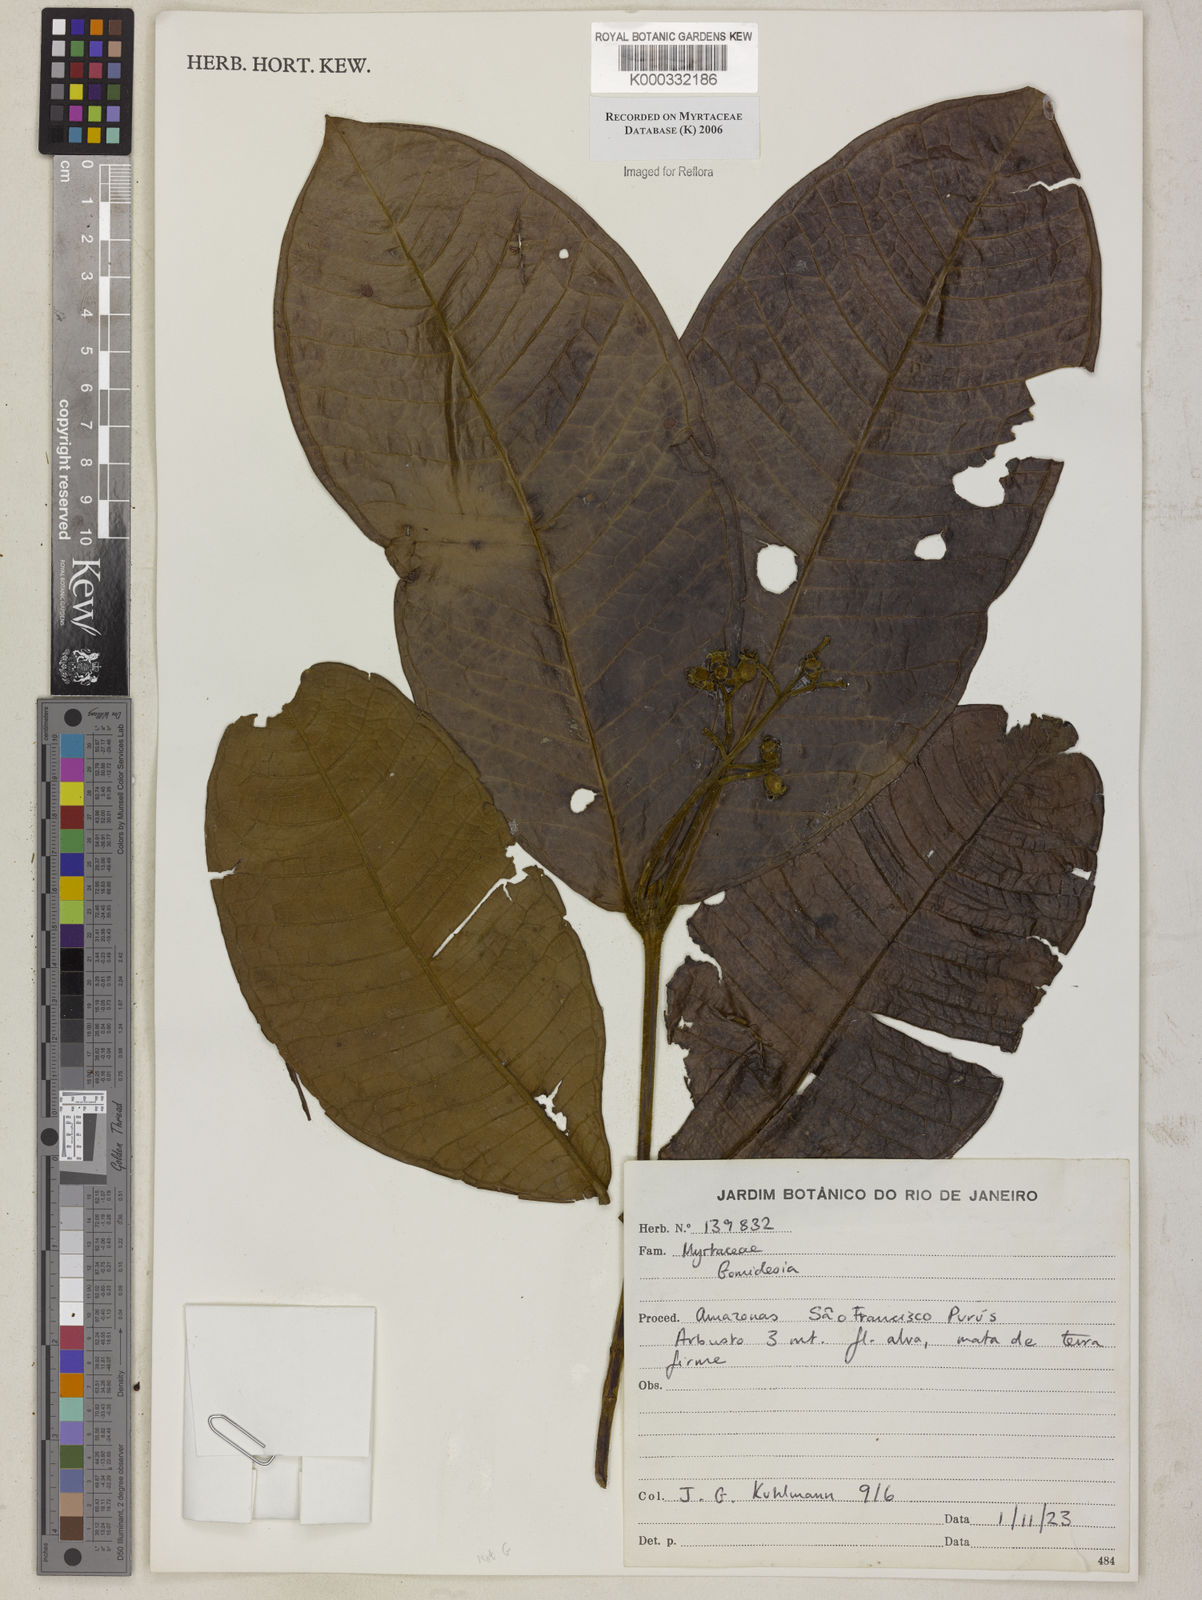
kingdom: Plantae
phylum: Tracheophyta
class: Magnoliopsida
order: Myrtales
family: Myrtaceae
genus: Myrcia
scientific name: Myrcia
